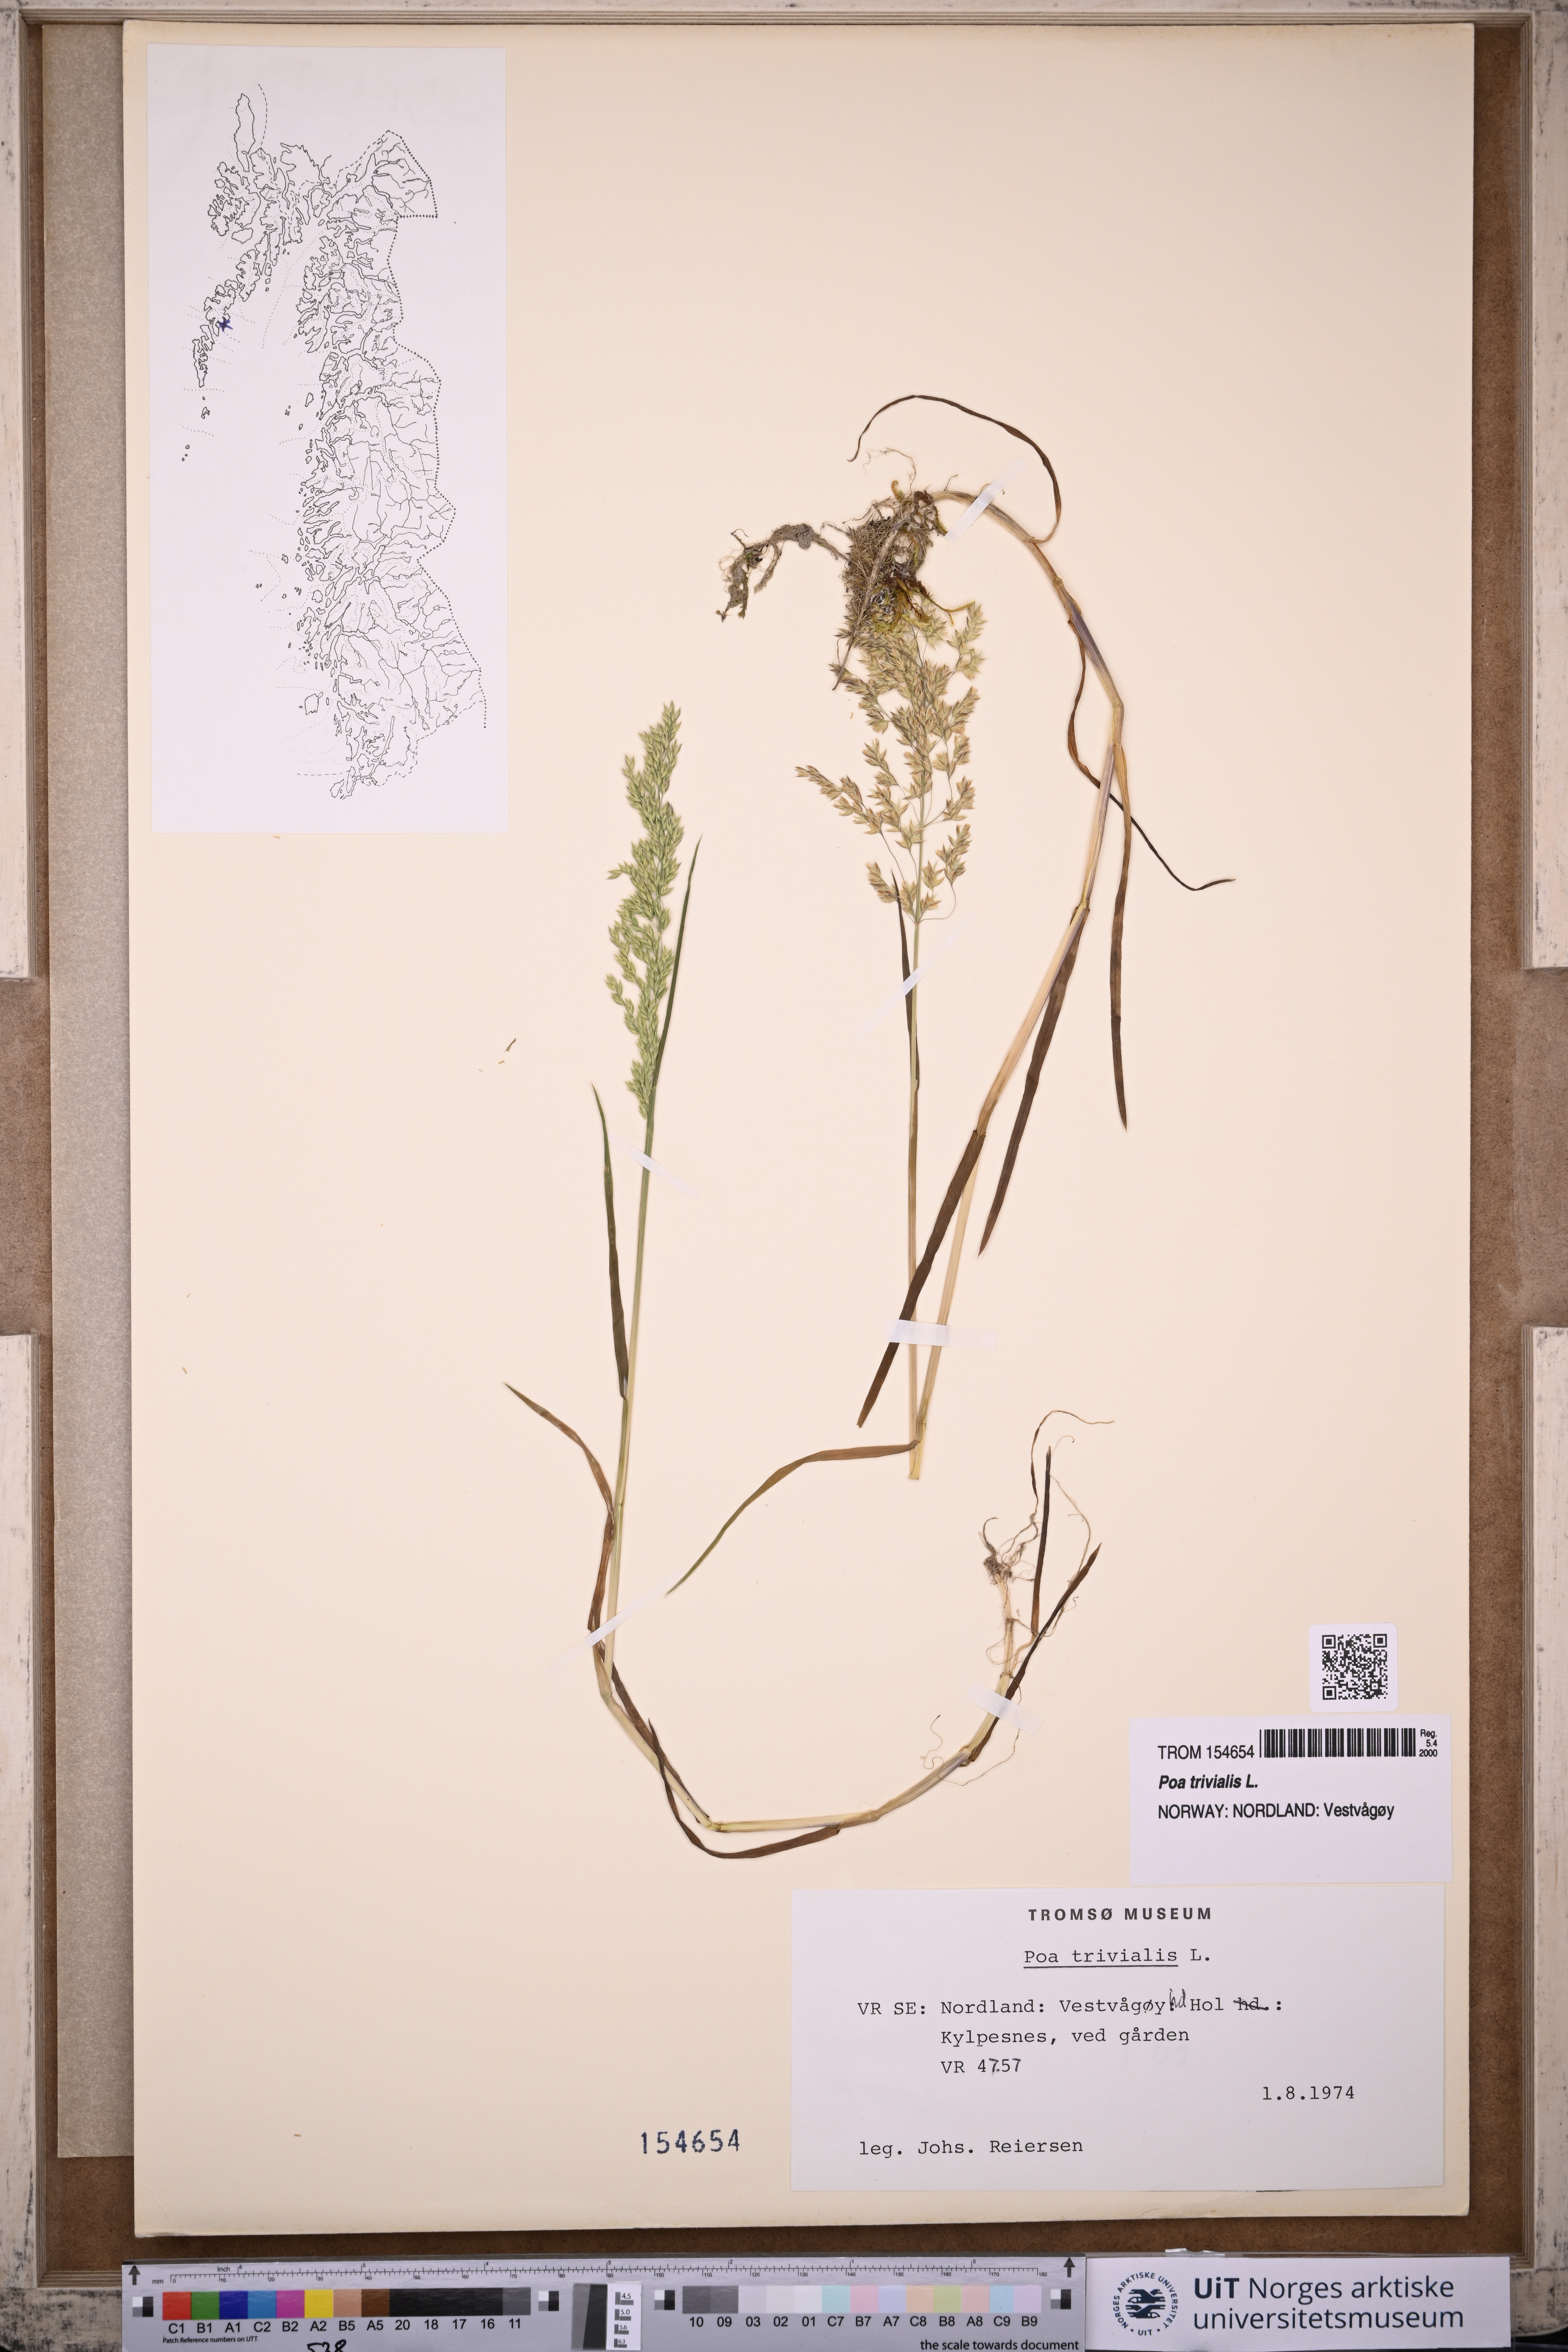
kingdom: Plantae
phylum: Tracheophyta
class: Liliopsida
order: Poales
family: Poaceae
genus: Poa
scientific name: Poa trivialis
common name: Rough bluegrass
